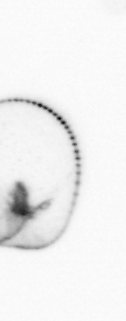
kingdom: Chromista
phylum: Myzozoa
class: Dinophyceae
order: Noctilucales
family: Noctilucaceae
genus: Noctiluca
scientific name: Noctiluca scintillans
